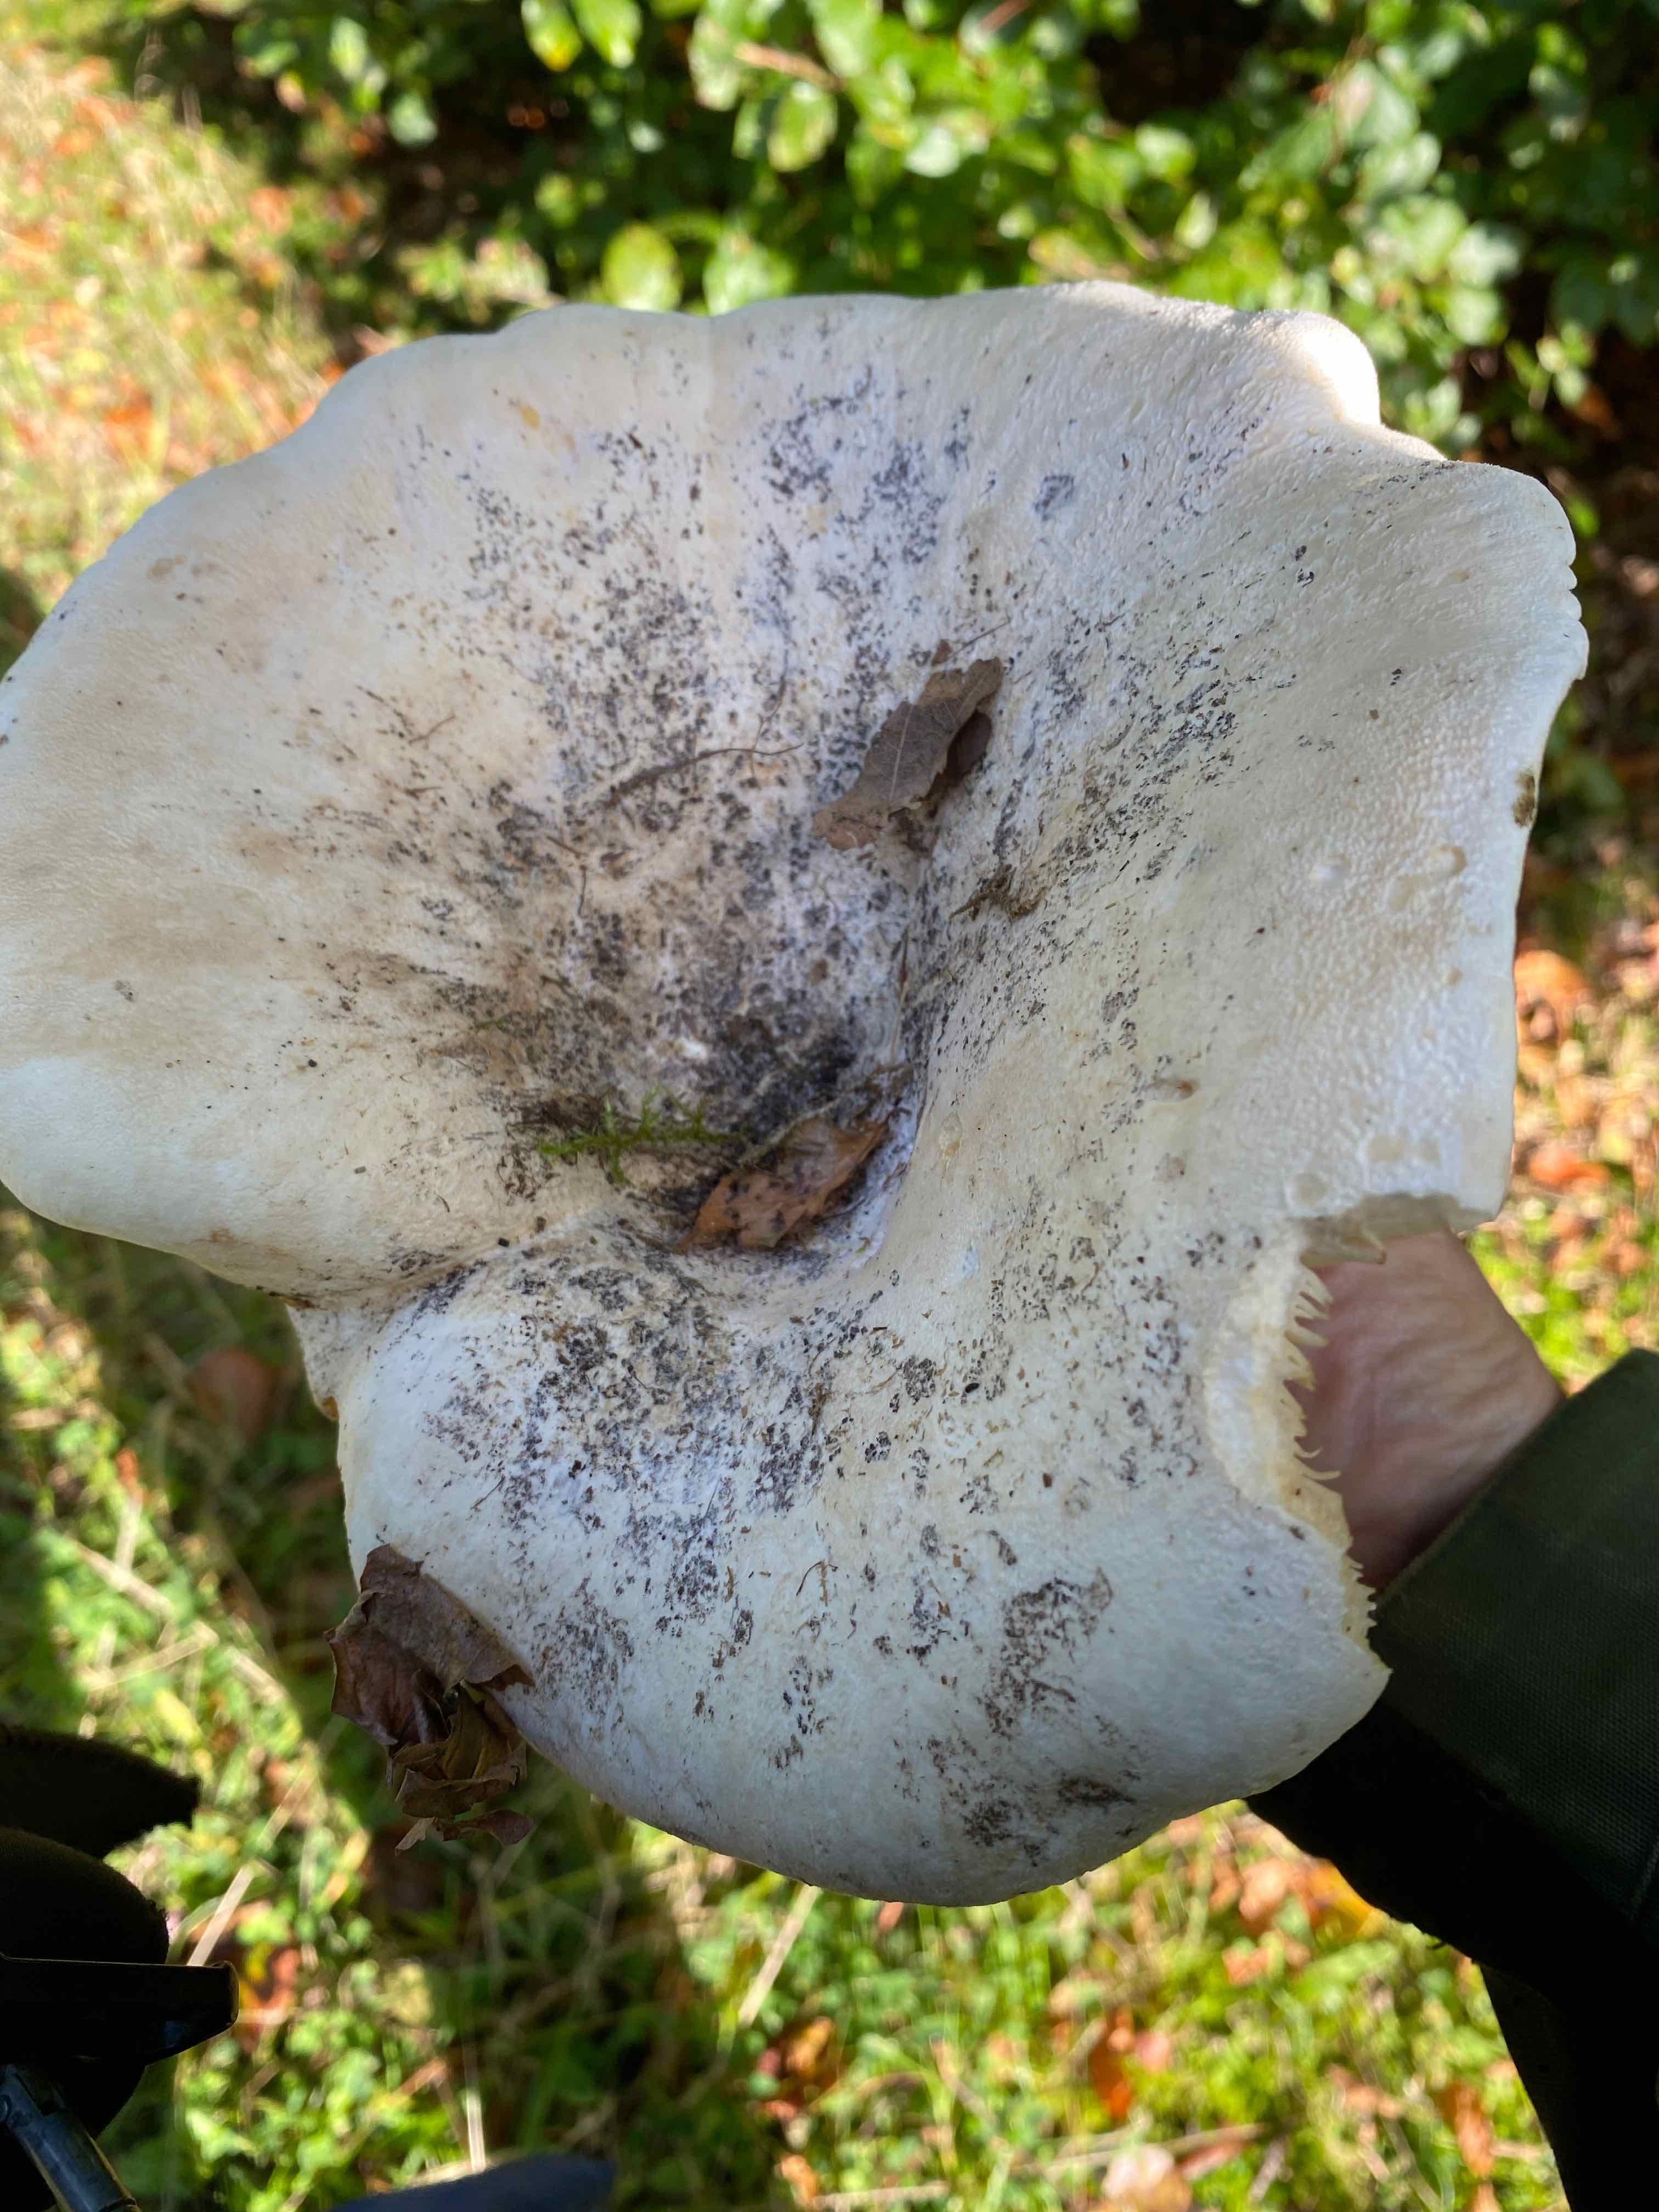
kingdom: Fungi
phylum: Basidiomycota
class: Agaricomycetes
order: Russulales
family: Russulaceae
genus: Lactifluus
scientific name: Lactifluus
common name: mælkehat
